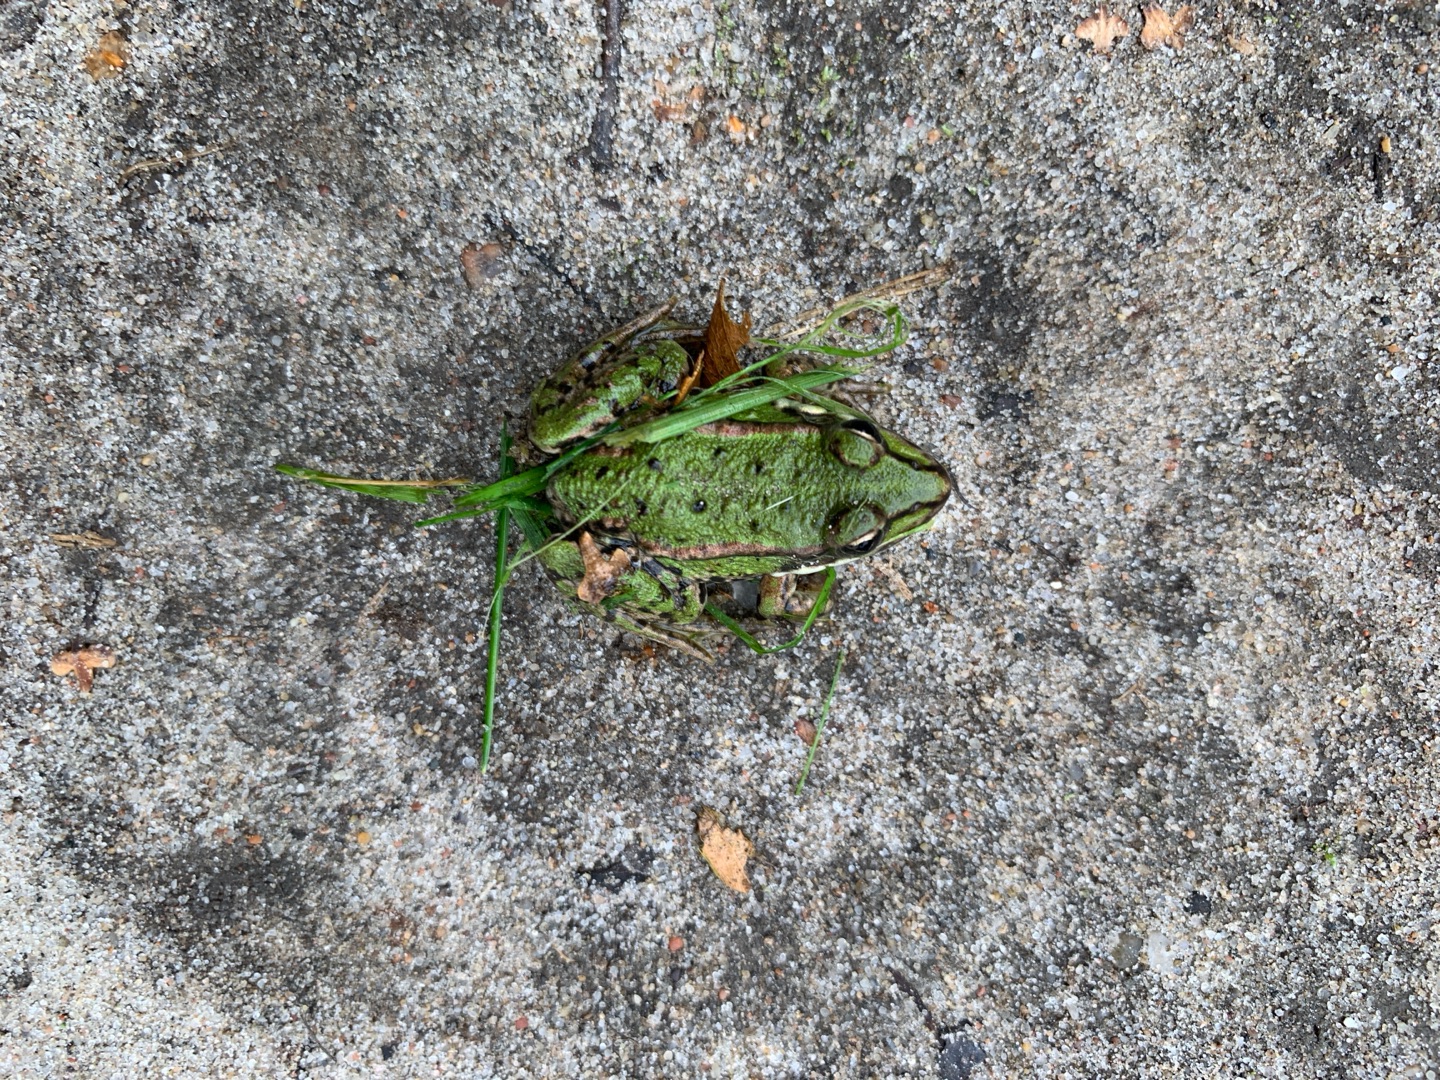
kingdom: Animalia
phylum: Chordata
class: Amphibia
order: Anura
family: Ranidae
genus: Pelophylax
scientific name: Pelophylax lessonae
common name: Grøn frø
